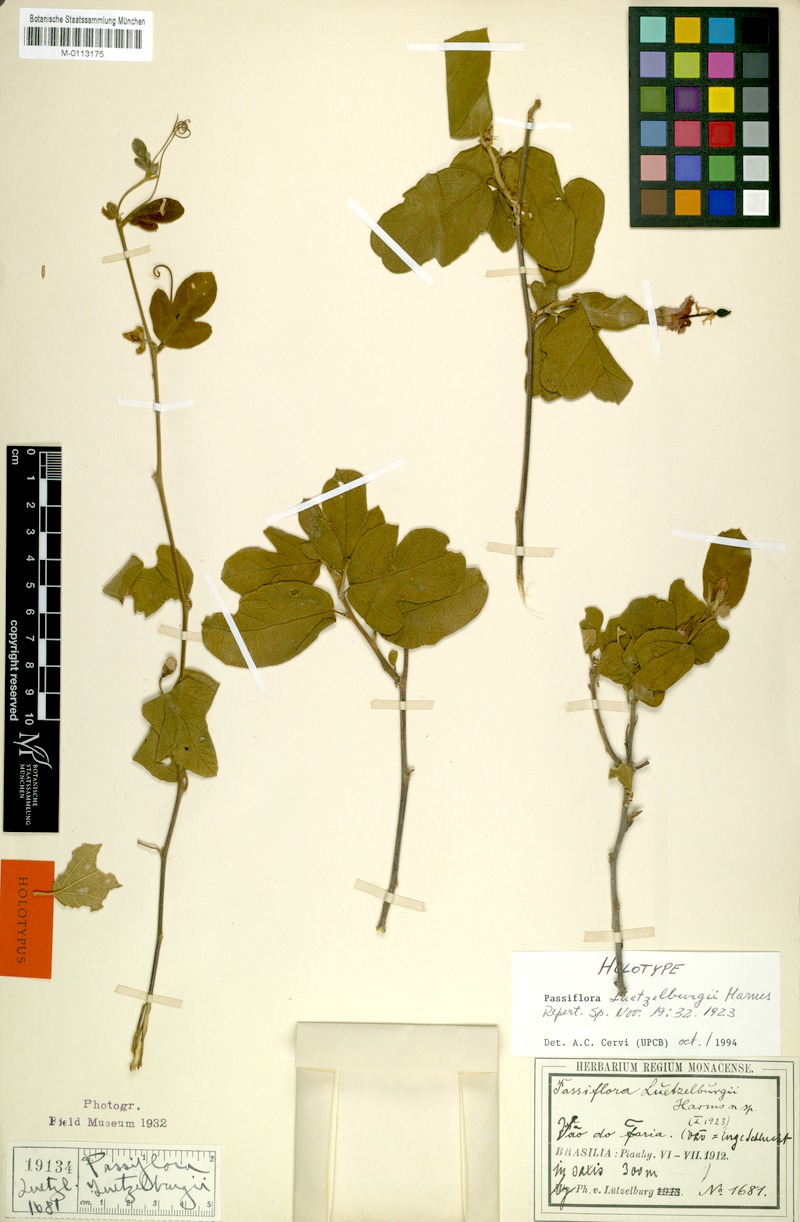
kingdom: Plantae
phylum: Tracheophyta
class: Magnoliopsida
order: Malpighiales
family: Passifloraceae
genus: Passiflora
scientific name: Passiflora luetzelburgii
